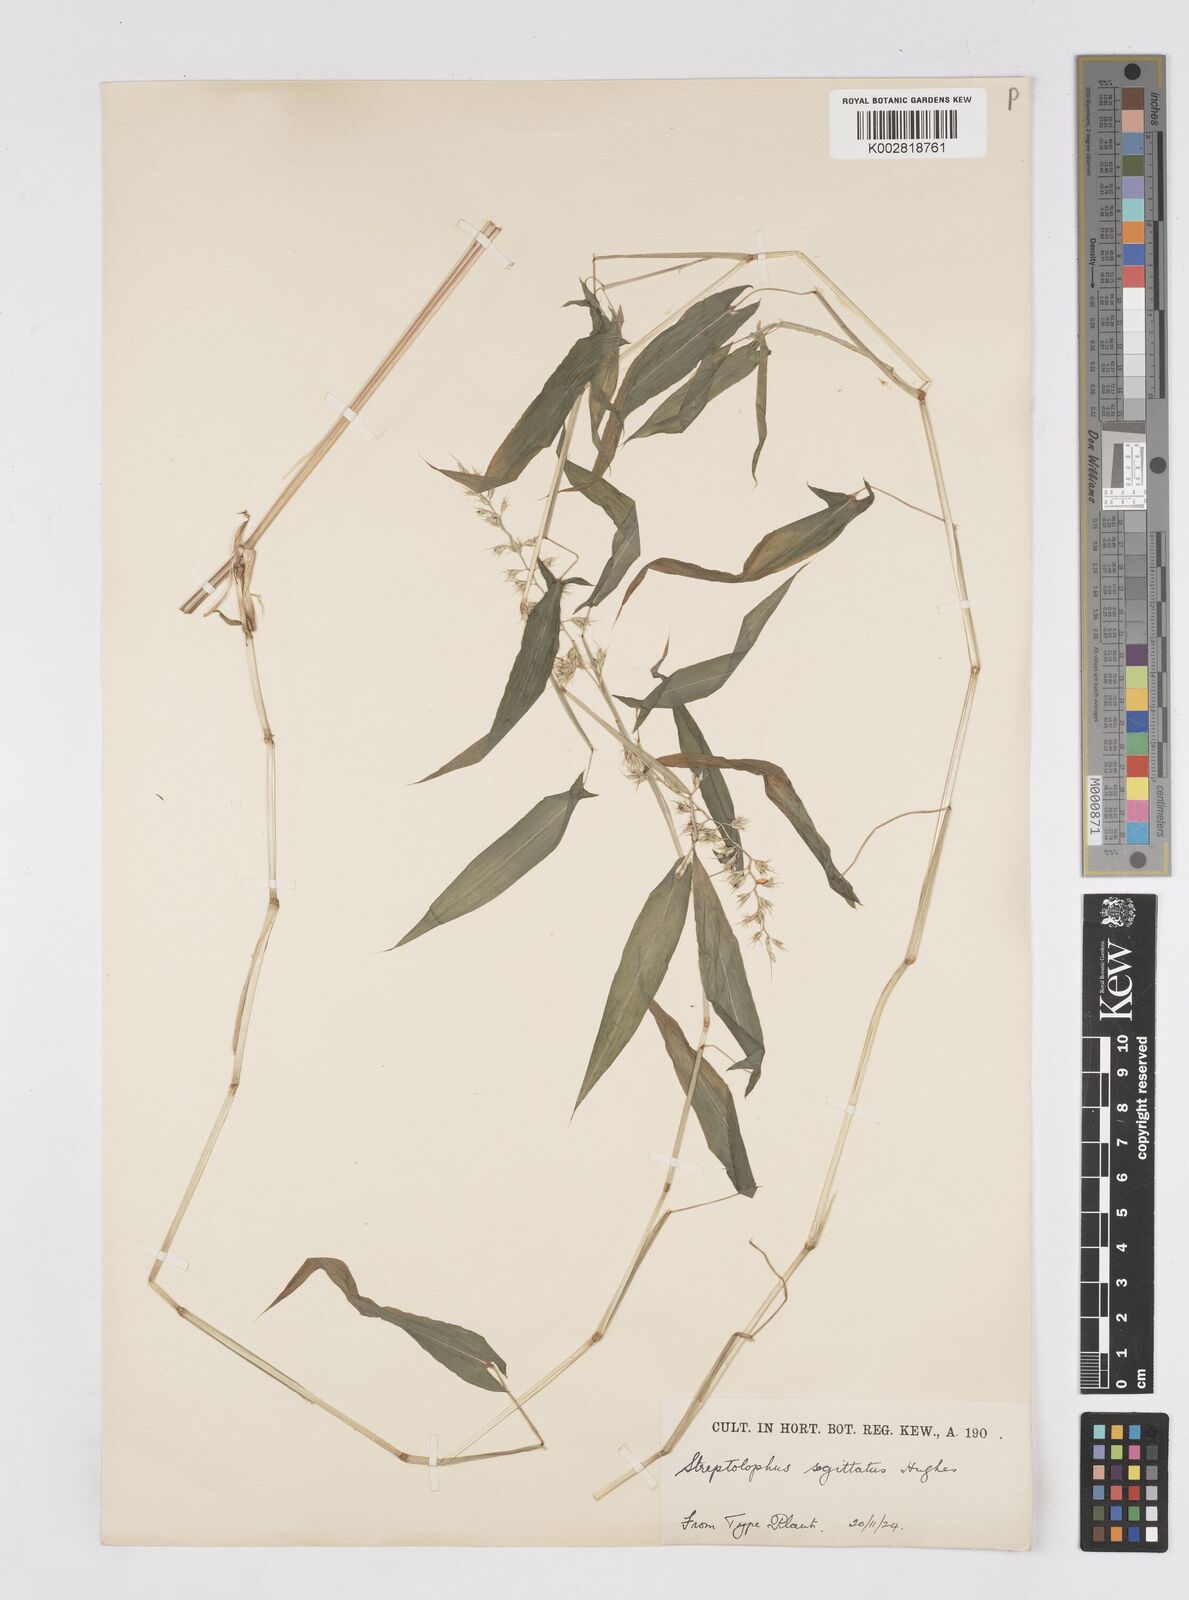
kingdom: Plantae
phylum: Tracheophyta
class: Liliopsida
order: Poales
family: Poaceae
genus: Streptolophus
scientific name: Streptolophus sagittifolius
